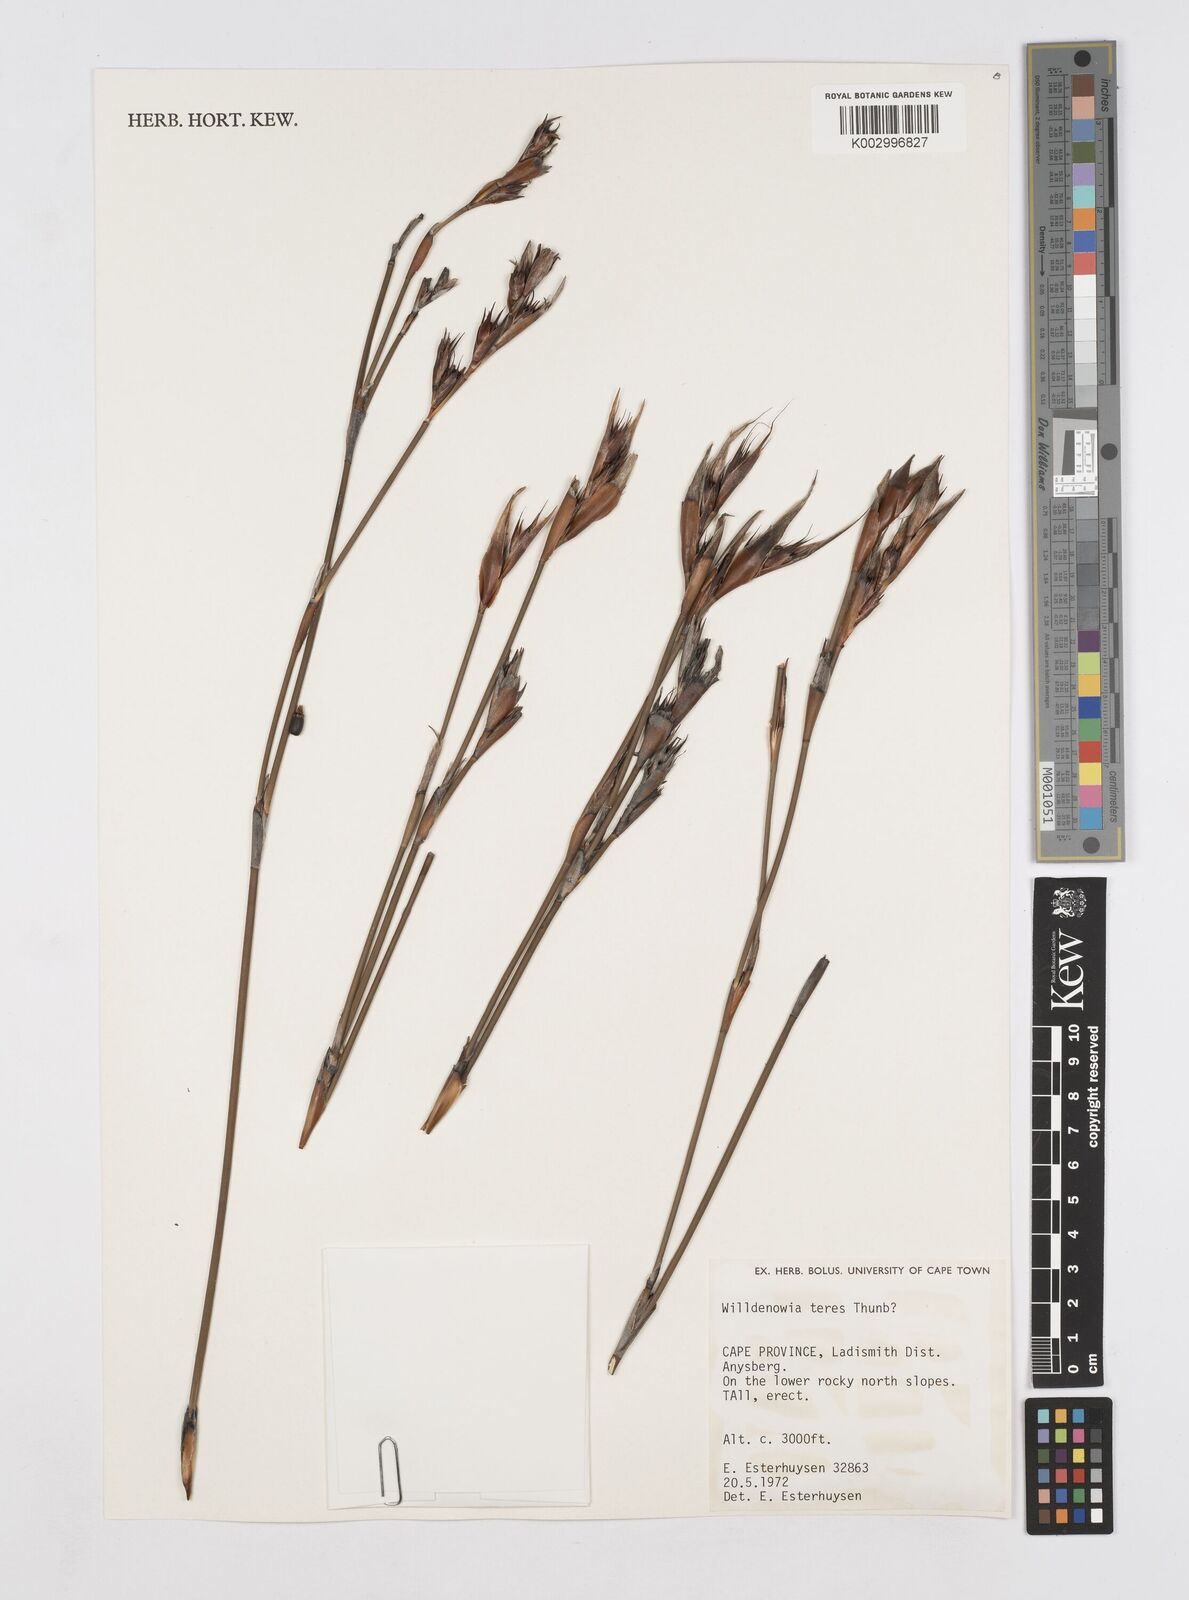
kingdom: Plantae
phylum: Tracheophyta
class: Liliopsida
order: Poales
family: Restionaceae
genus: Willdenowia
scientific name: Willdenowia teres
